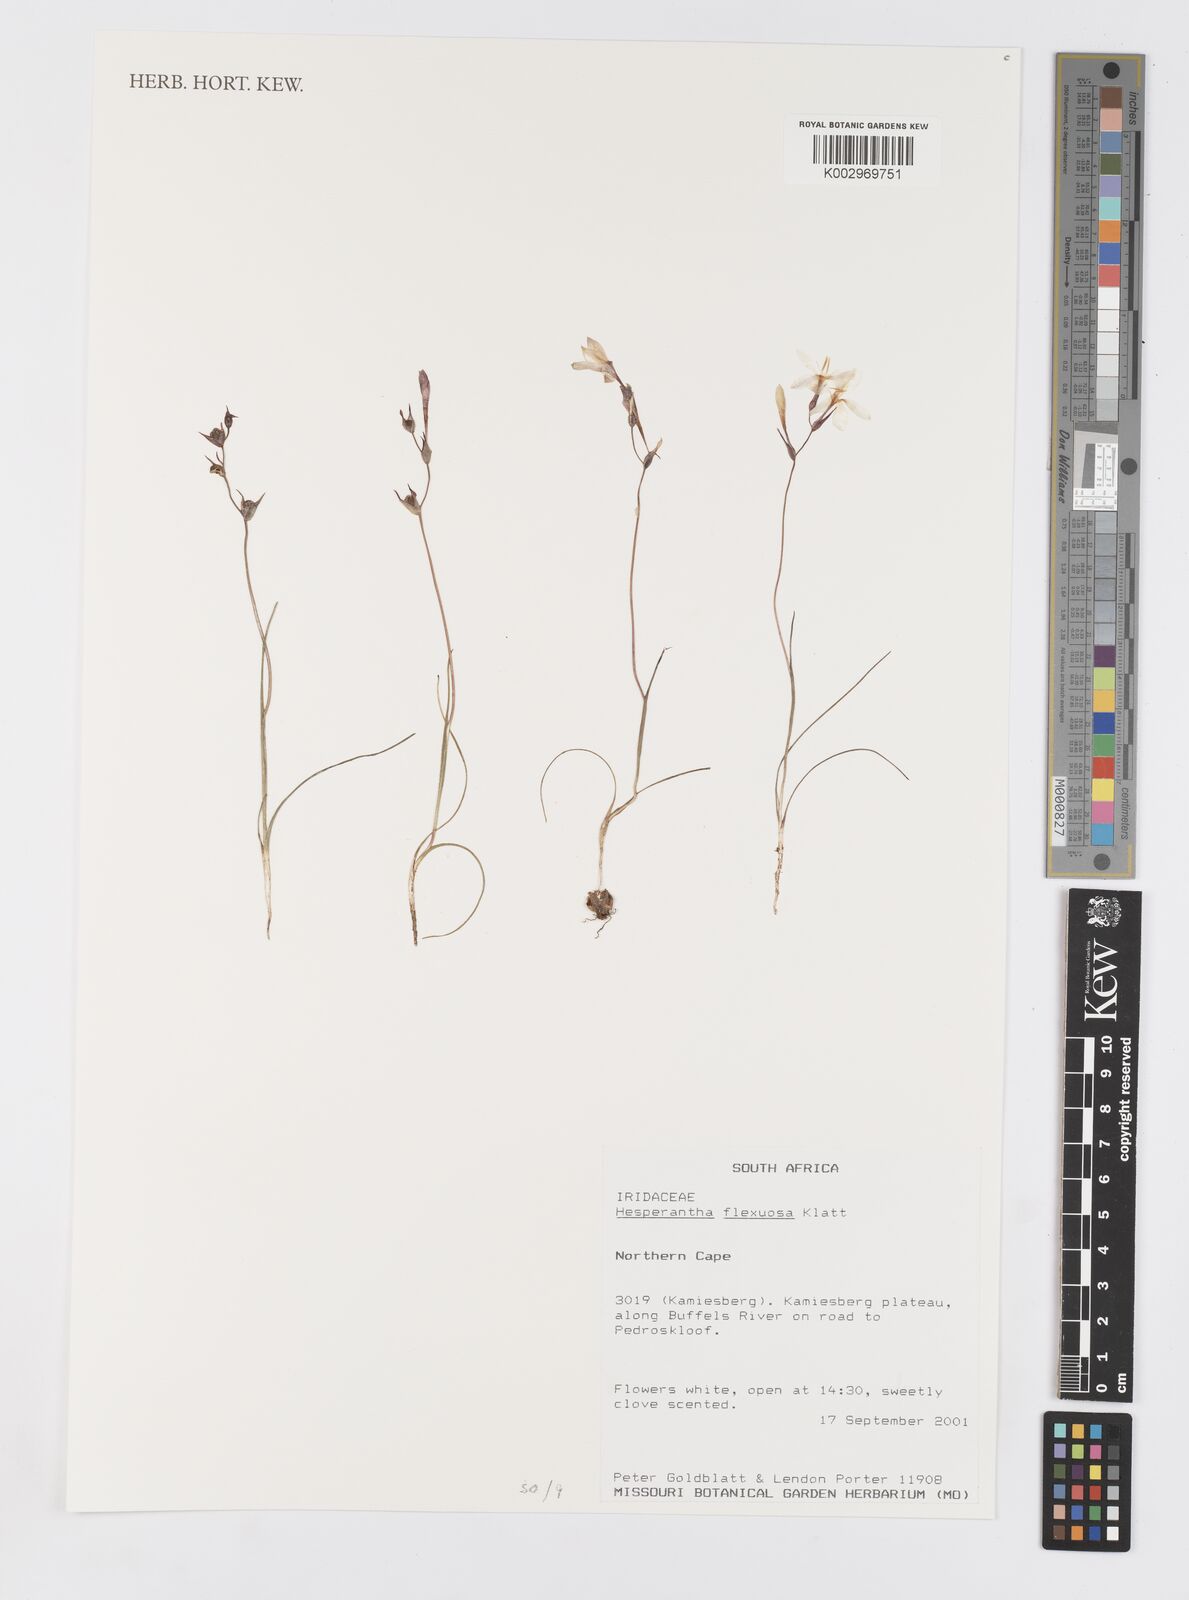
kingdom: Plantae
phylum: Tracheophyta
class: Liliopsida
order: Asparagales
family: Iridaceae
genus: Hesperantha
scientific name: Hesperantha flexuosa
